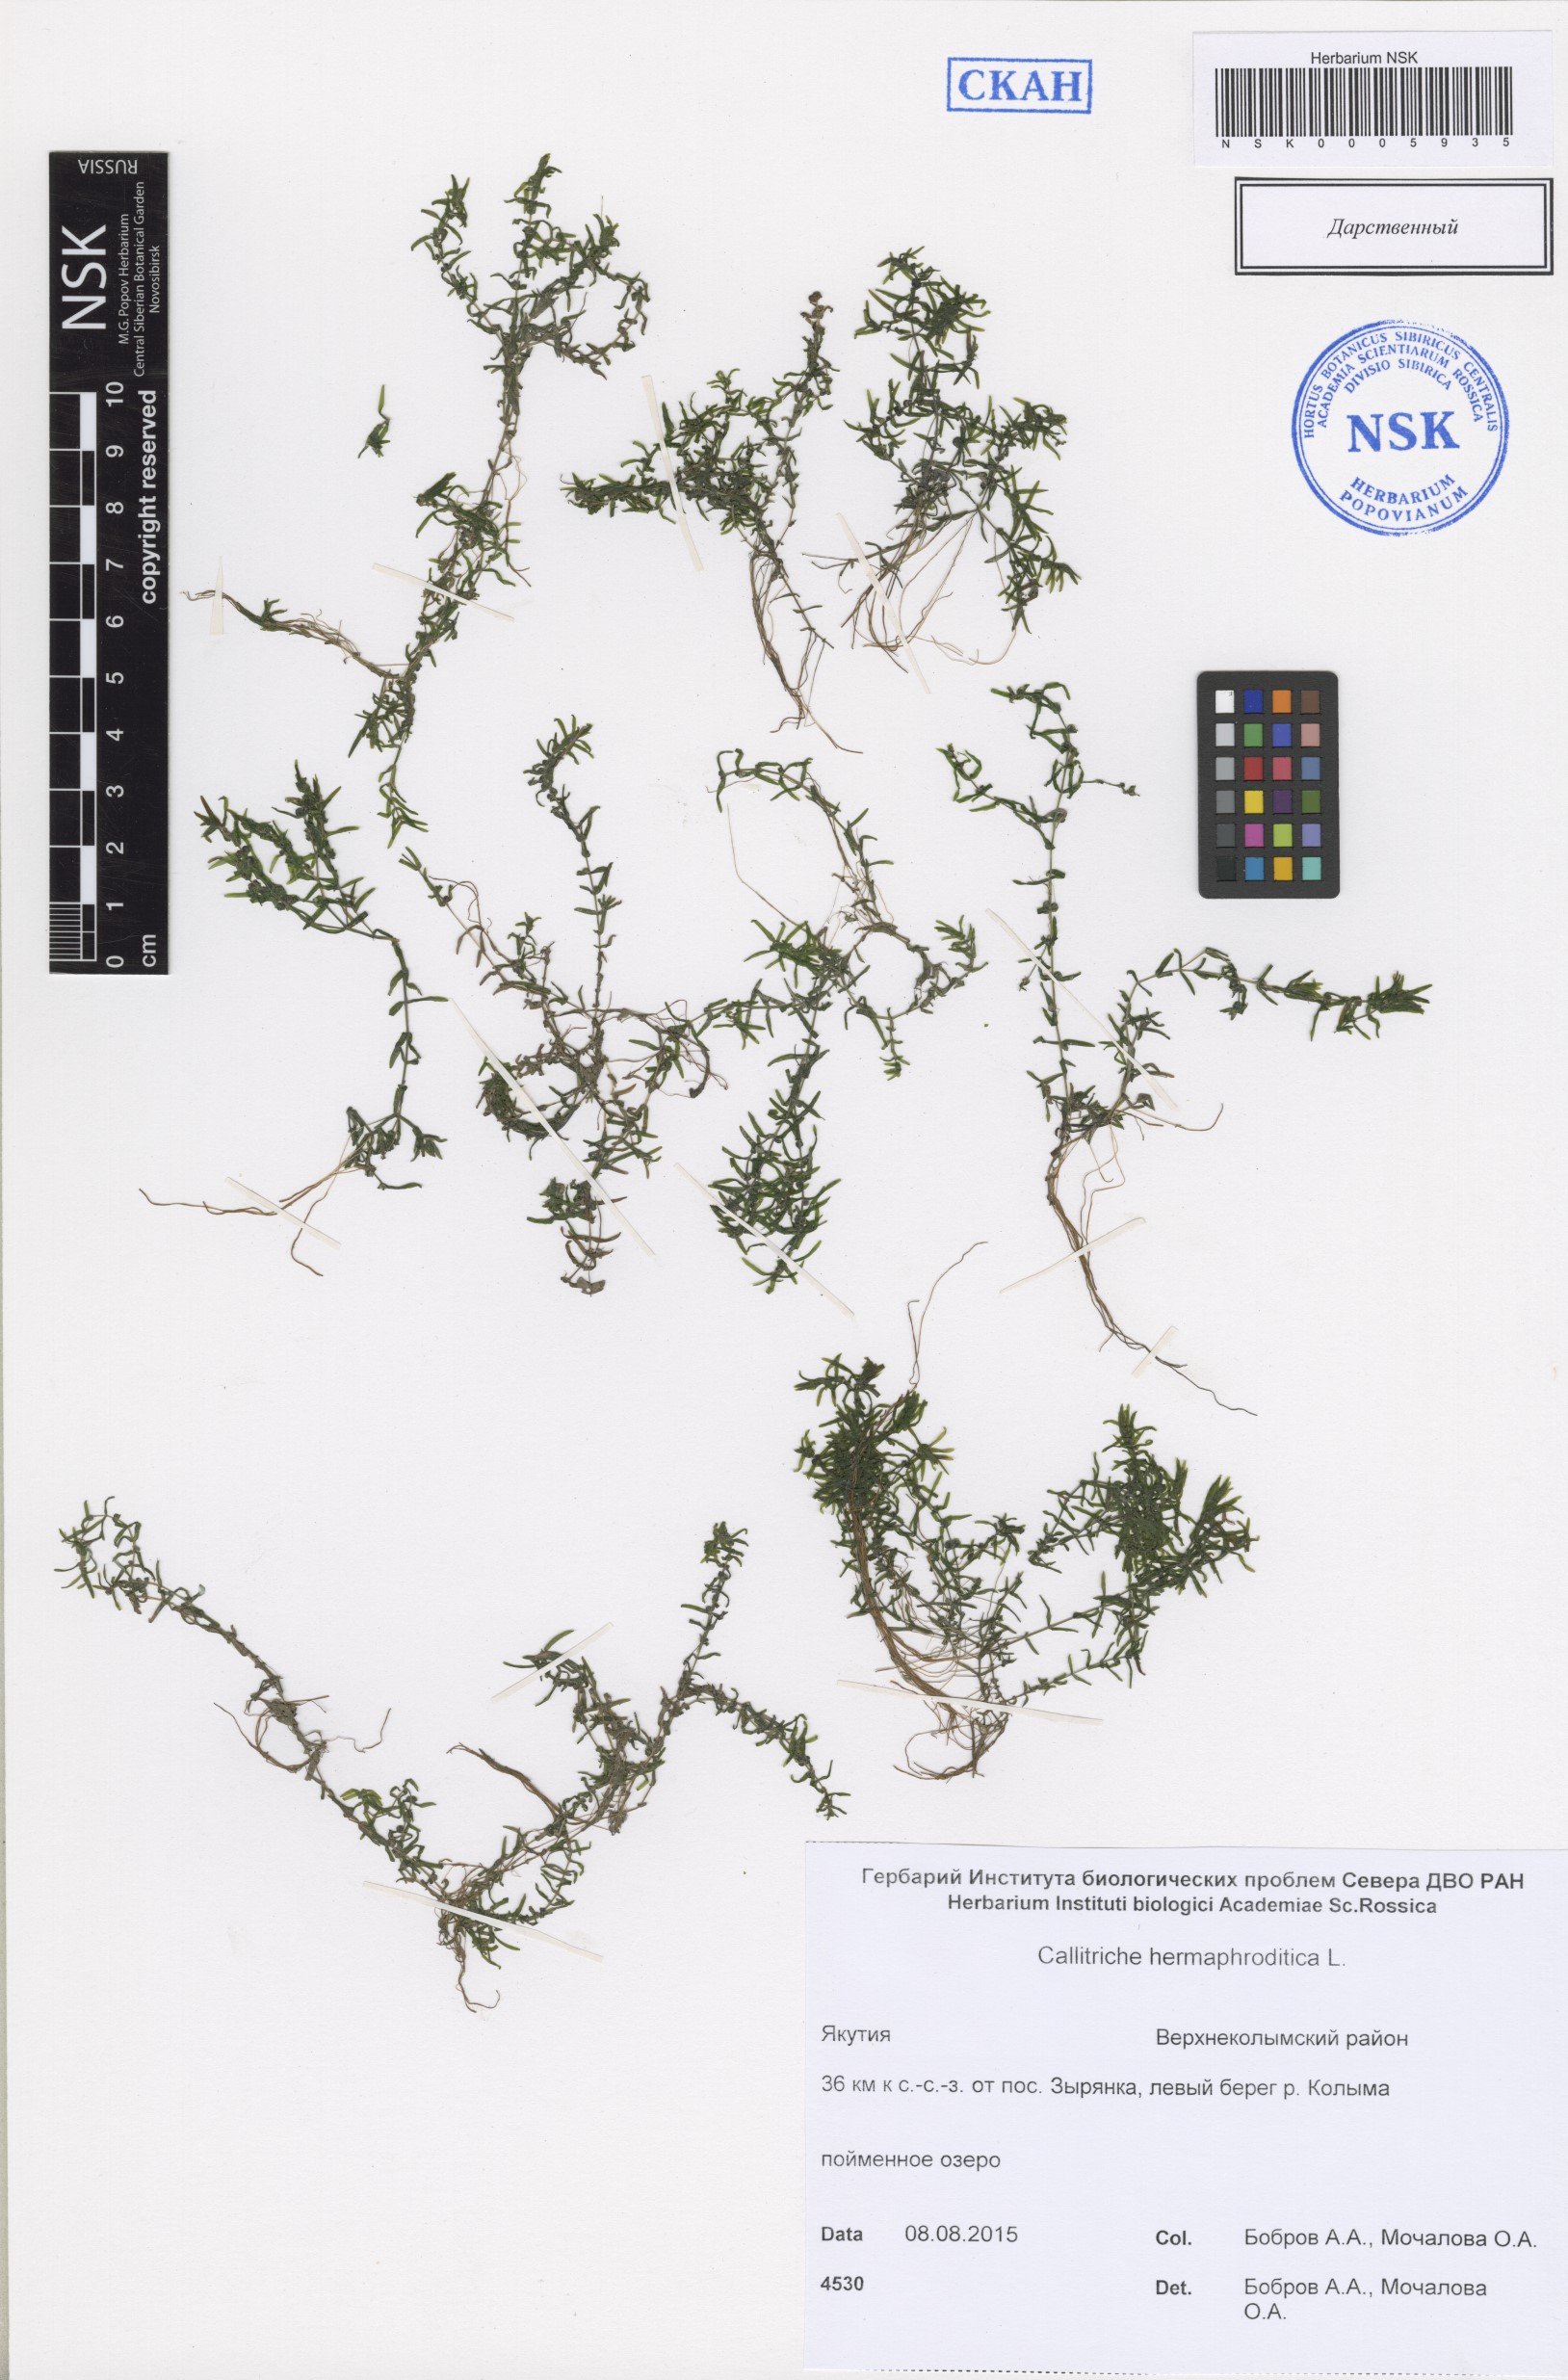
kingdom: Plantae
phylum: Tracheophyta
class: Magnoliopsida
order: Lamiales
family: Plantaginaceae
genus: Callitriche
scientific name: Callitriche hermaphroditica
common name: Autumnal water-starwort
